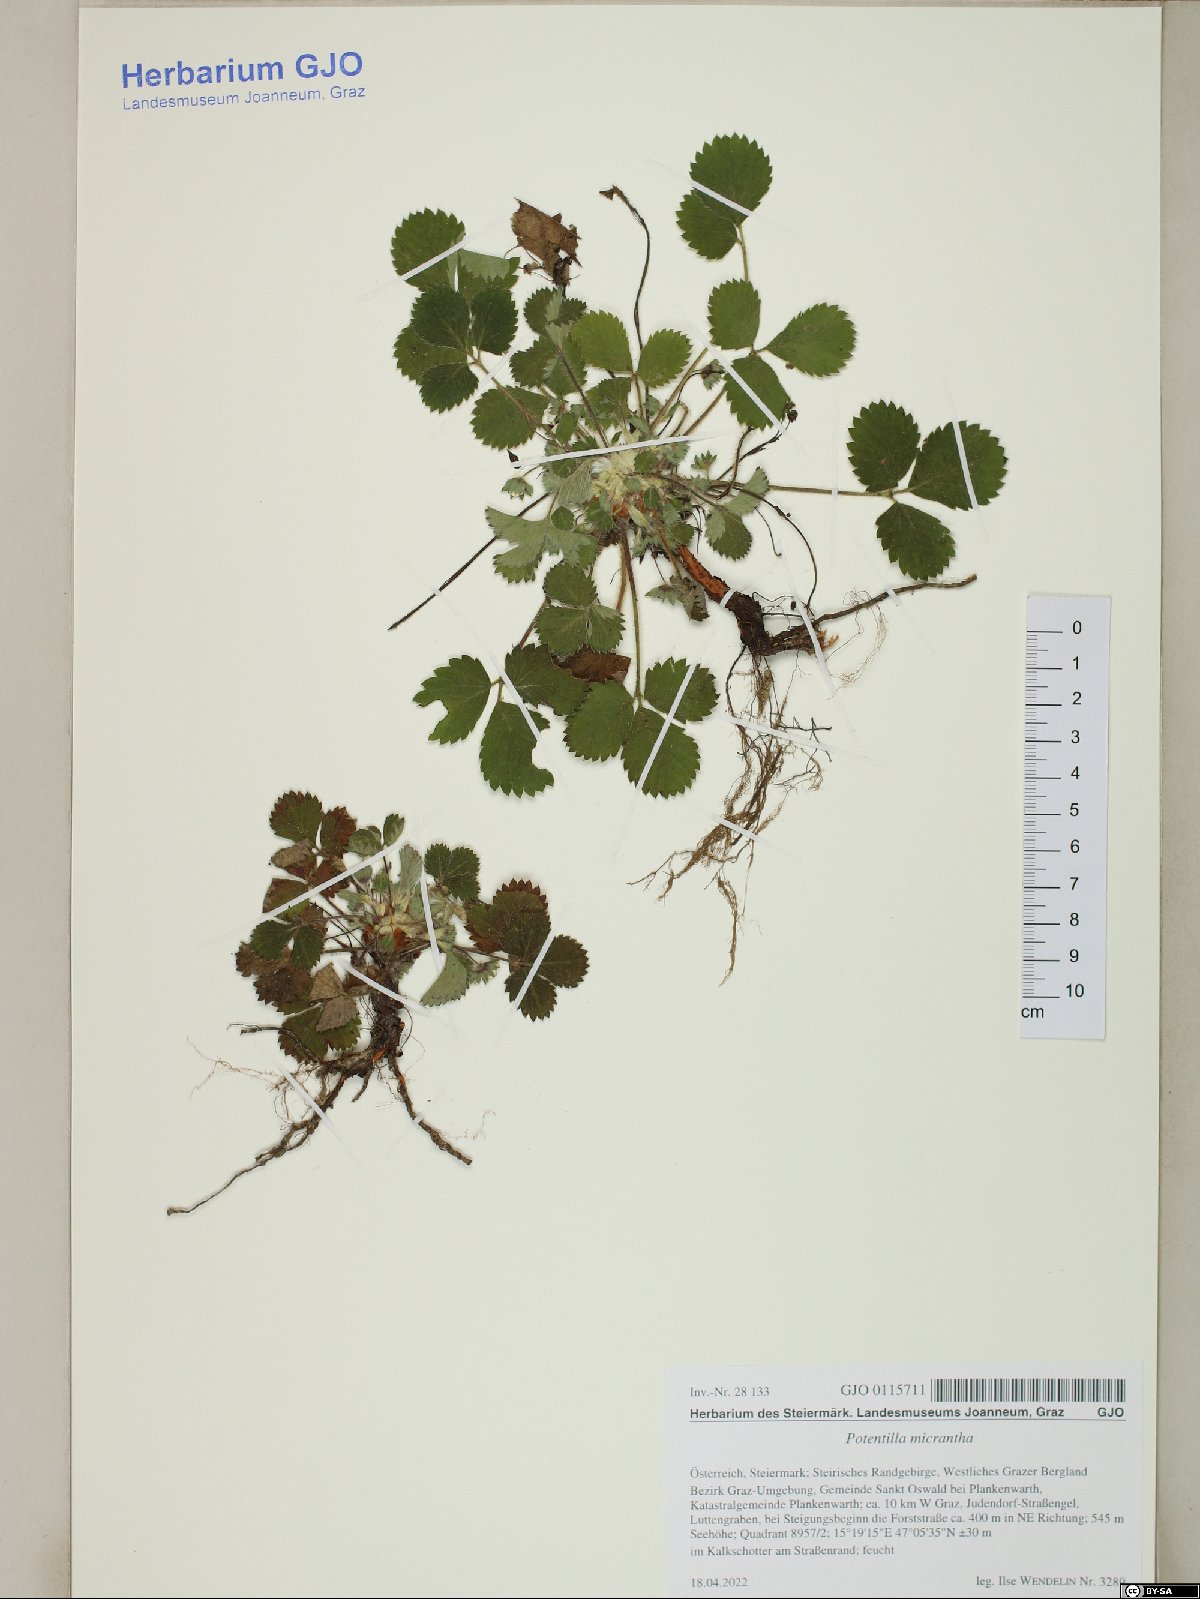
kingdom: Plantae
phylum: Tracheophyta
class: Magnoliopsida
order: Rosales
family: Rosaceae
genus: Potentilla
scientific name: Potentilla micrantha
